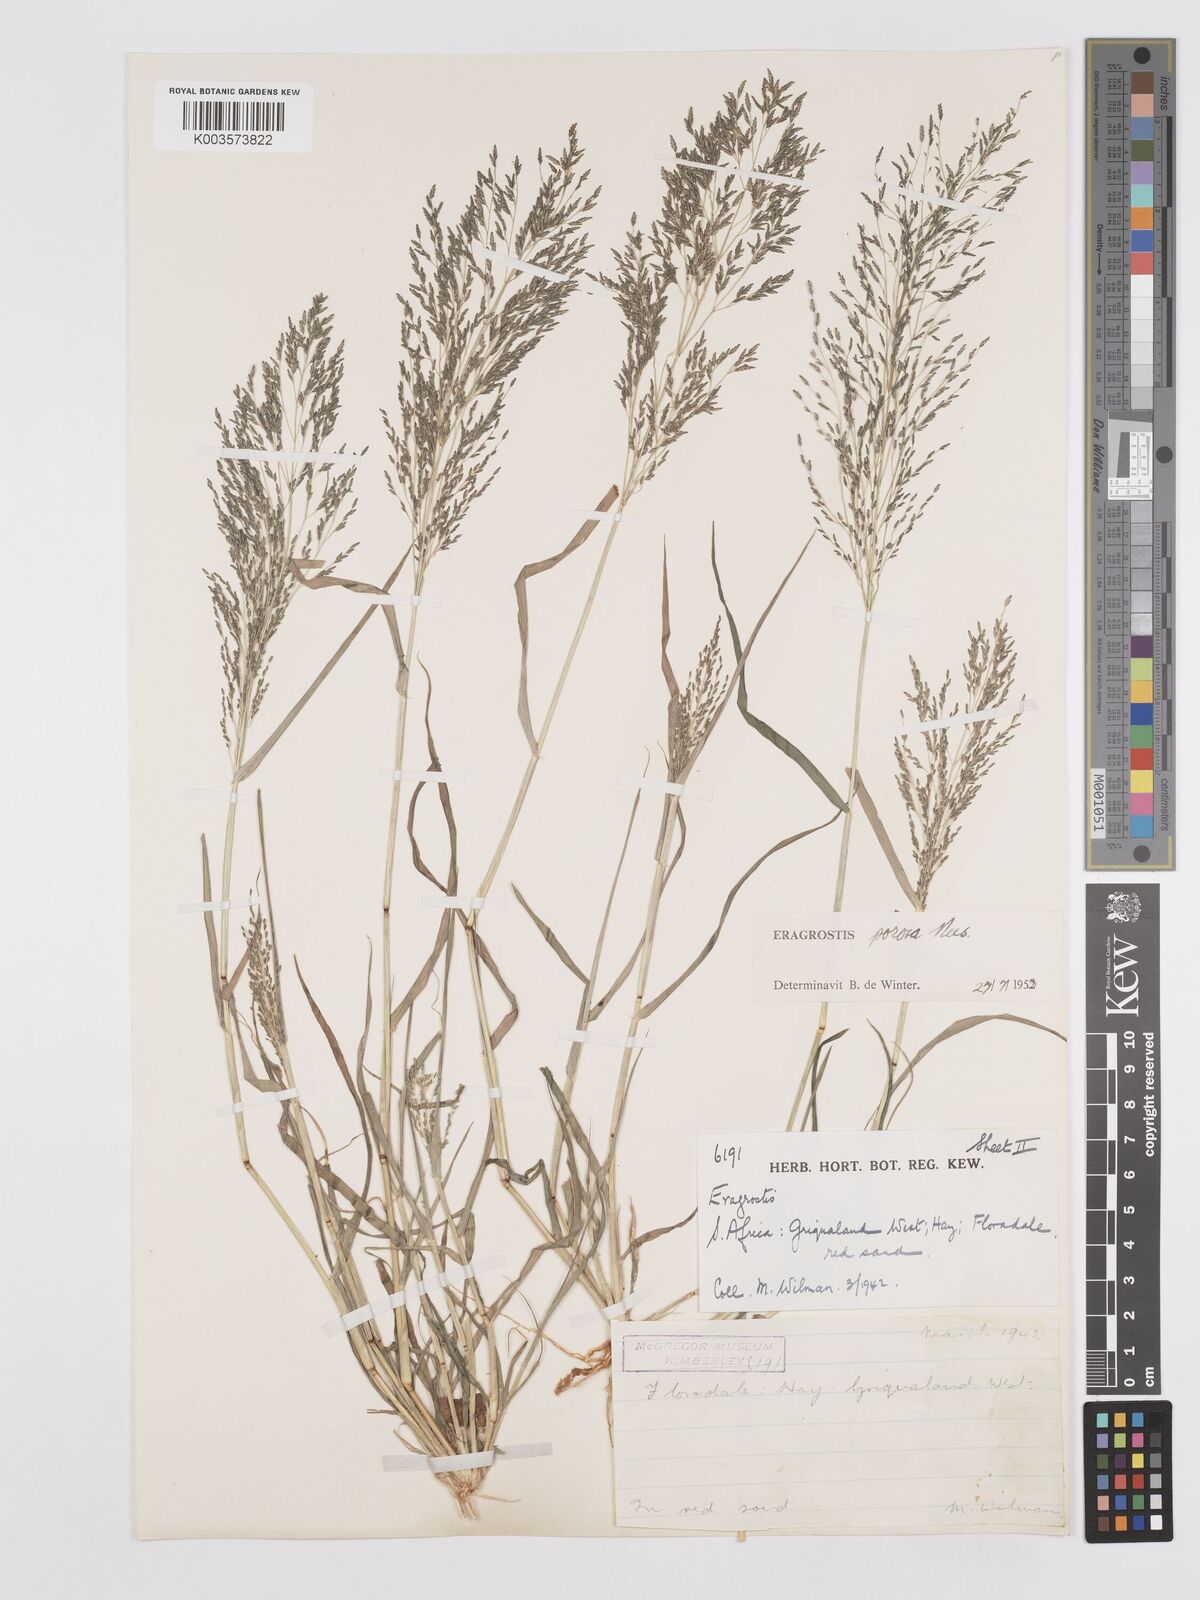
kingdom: Plantae
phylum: Tracheophyta
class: Liliopsida
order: Poales
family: Poaceae
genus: Eragrostis
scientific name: Eragrostis porosa
